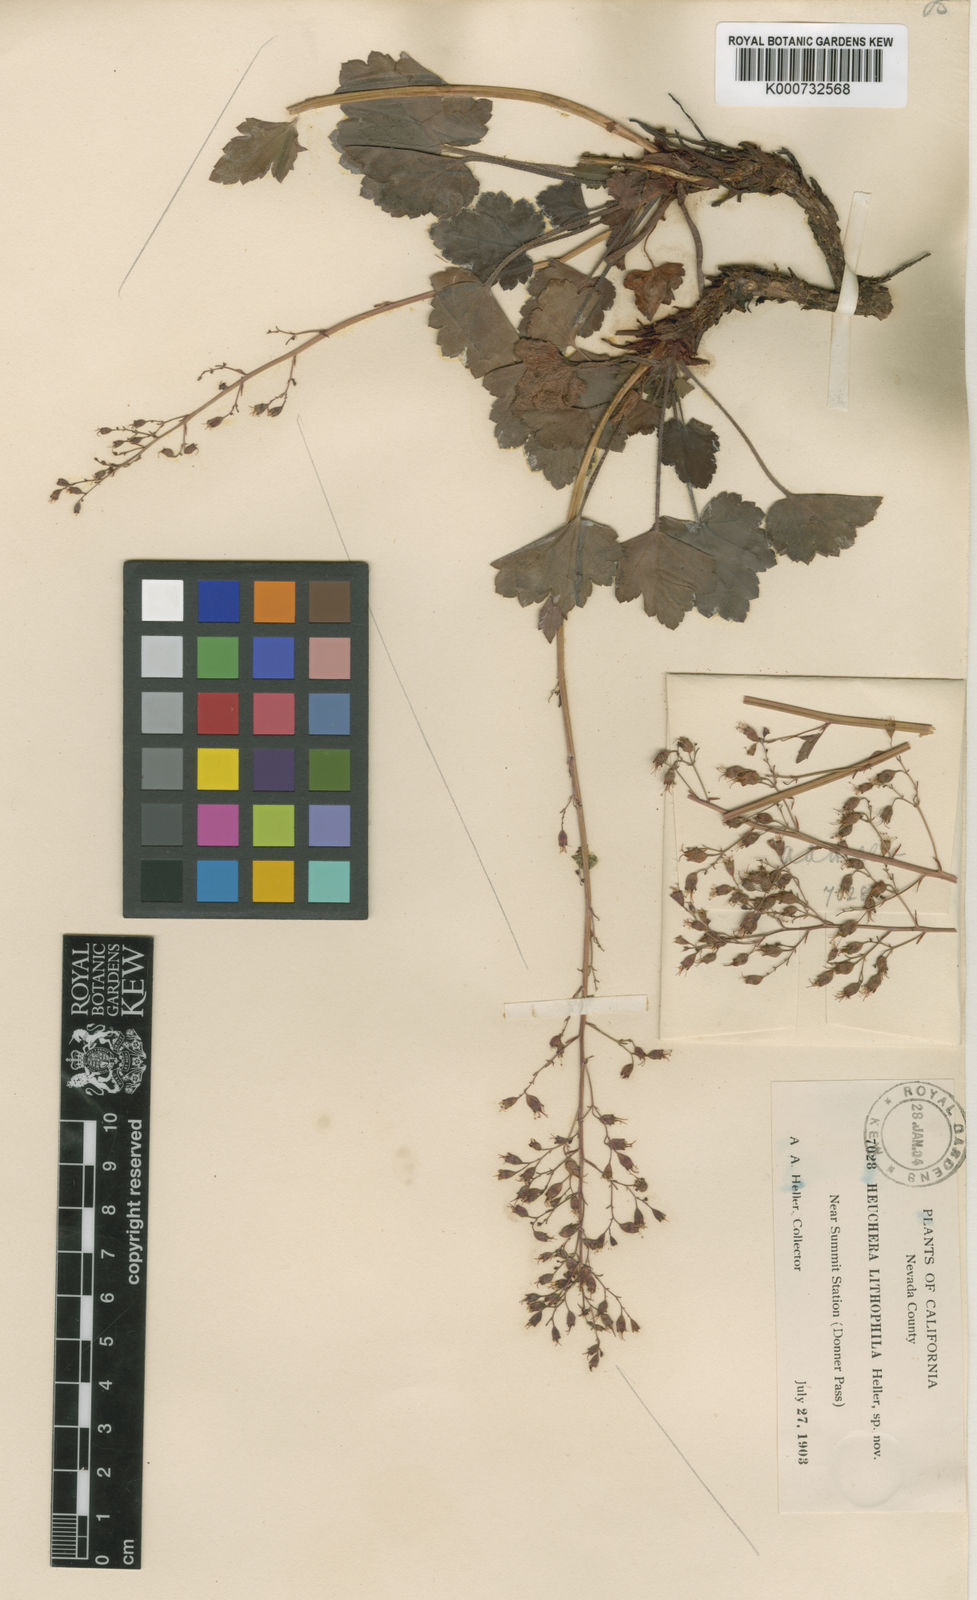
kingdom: Plantae
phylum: Tracheophyta
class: Magnoliopsida
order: Saxifragales
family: Saxifragaceae
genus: Heuchera
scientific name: Heuchera rubescens
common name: Jack-o'the-rocks
